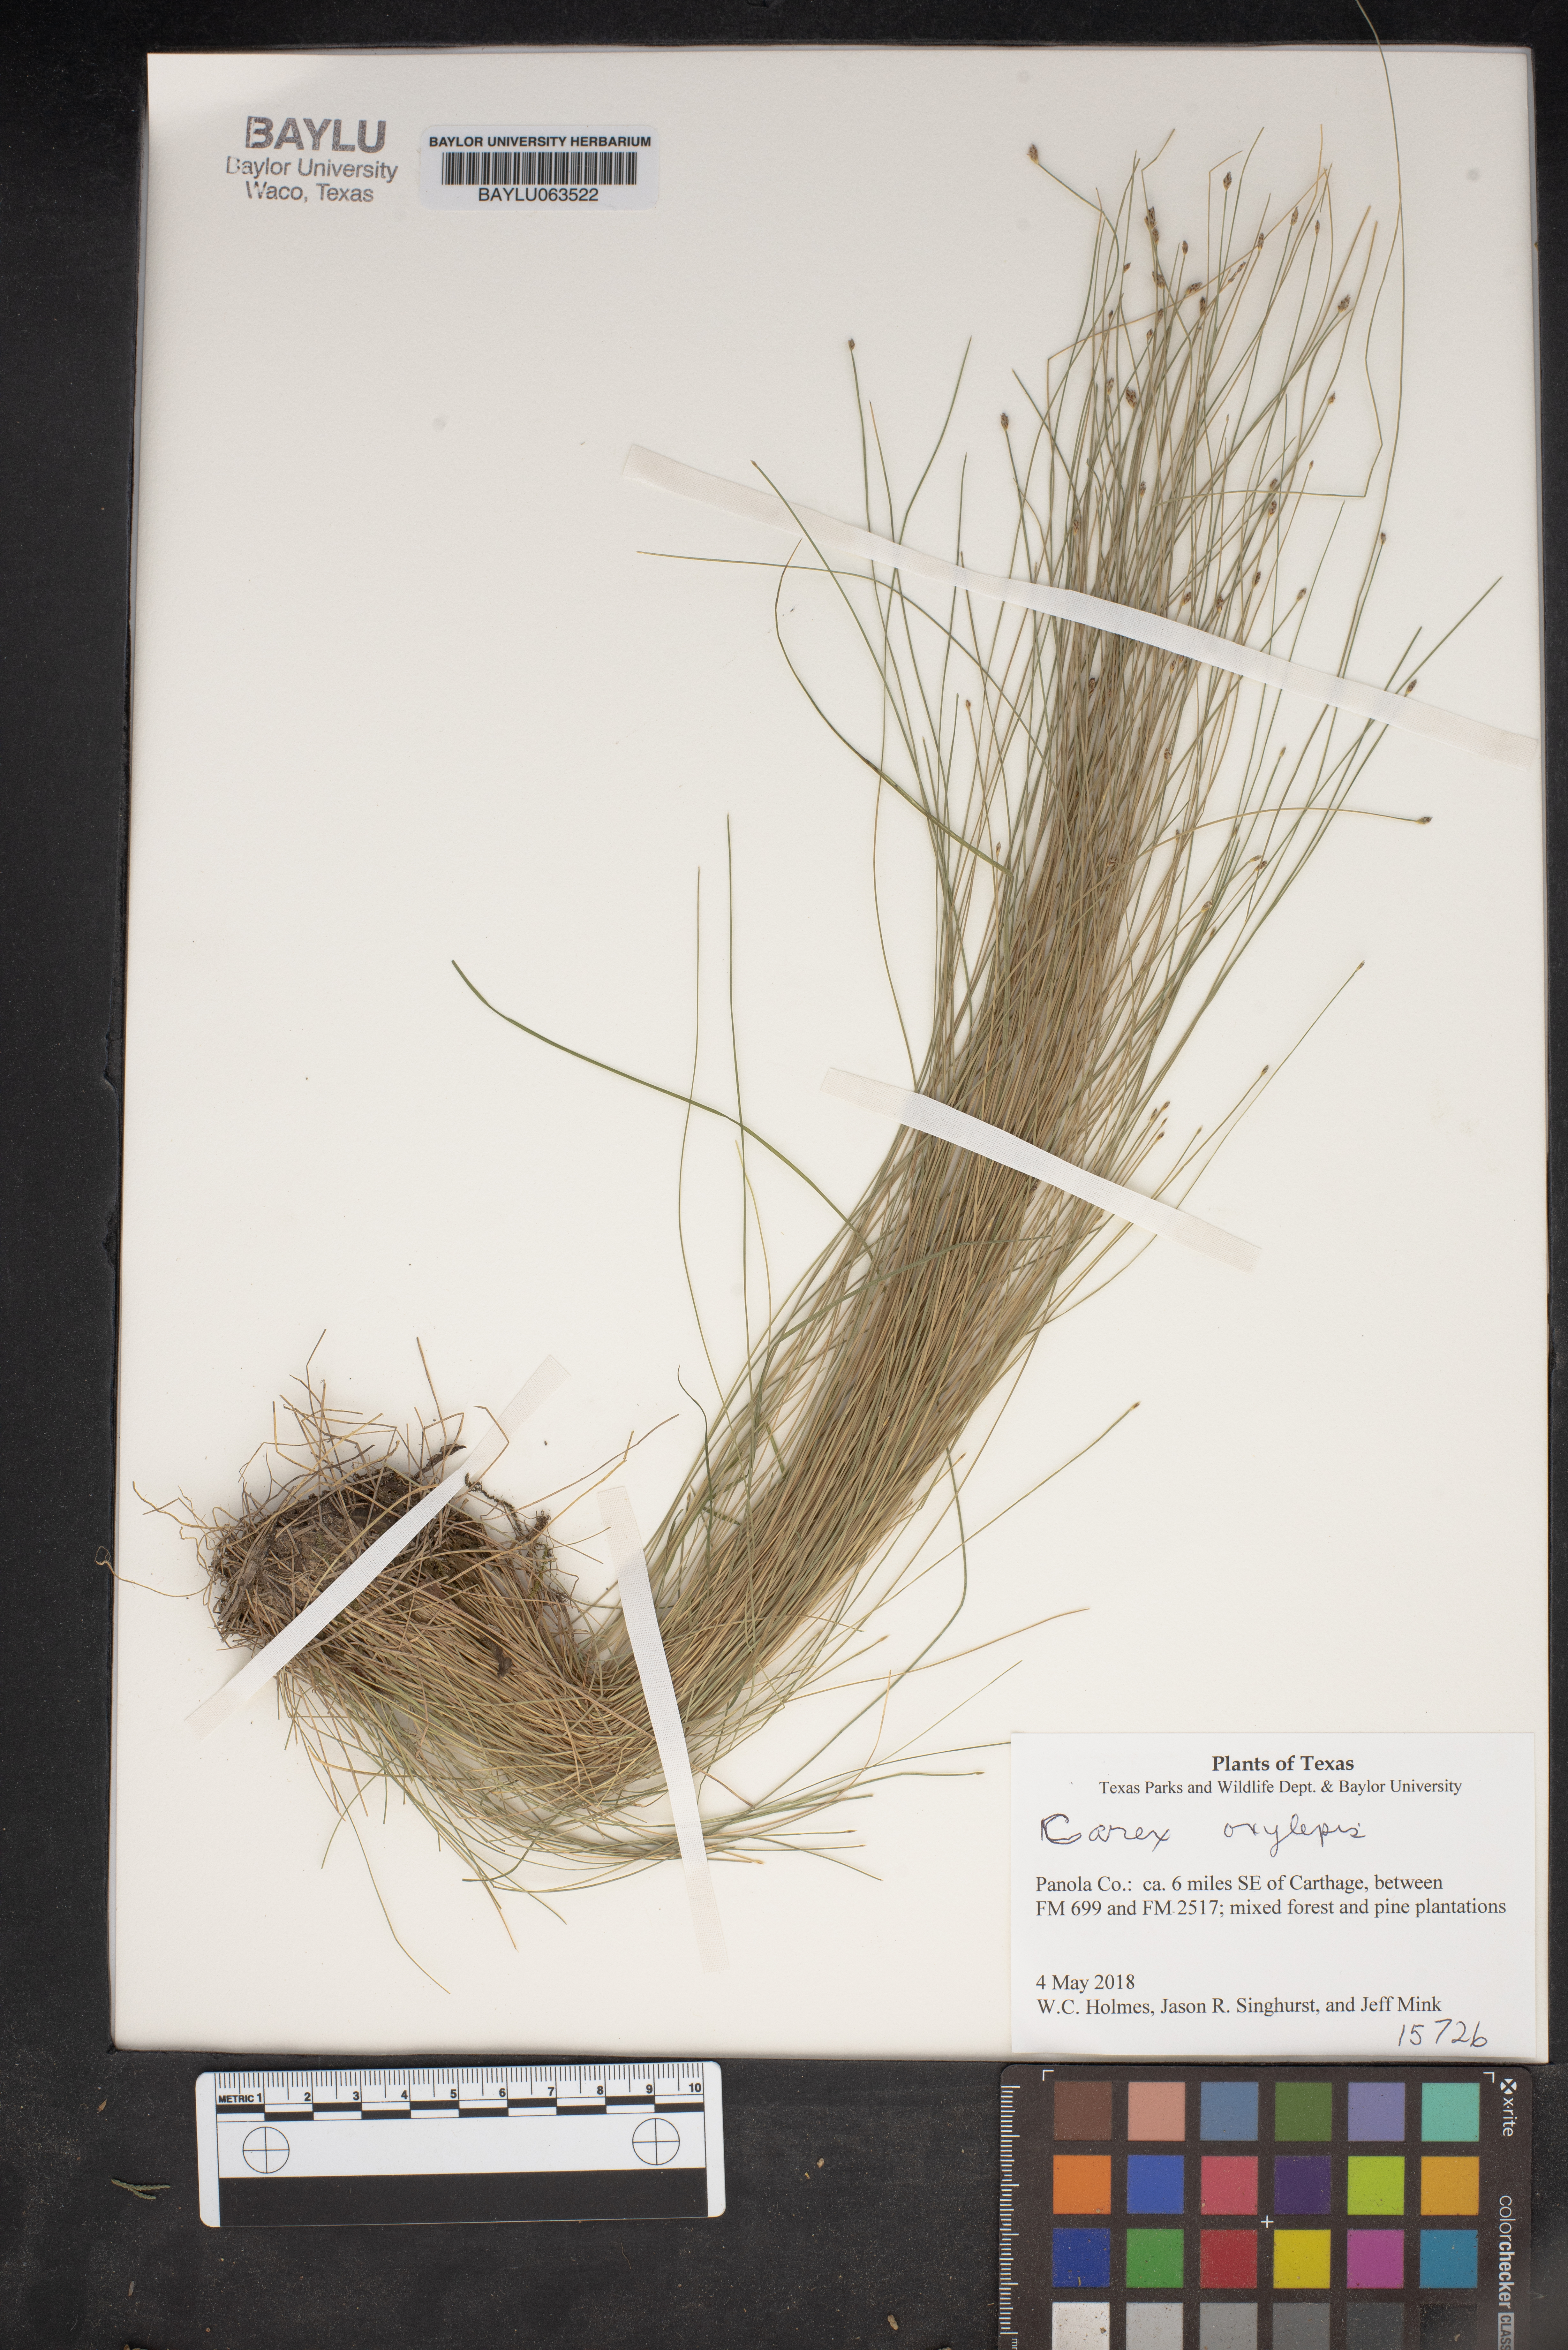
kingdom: Plantae
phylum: Tracheophyta
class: Liliopsida
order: Poales
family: Cyperaceae
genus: Carex
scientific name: Carex oxylepis
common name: Sharpscale sedge
